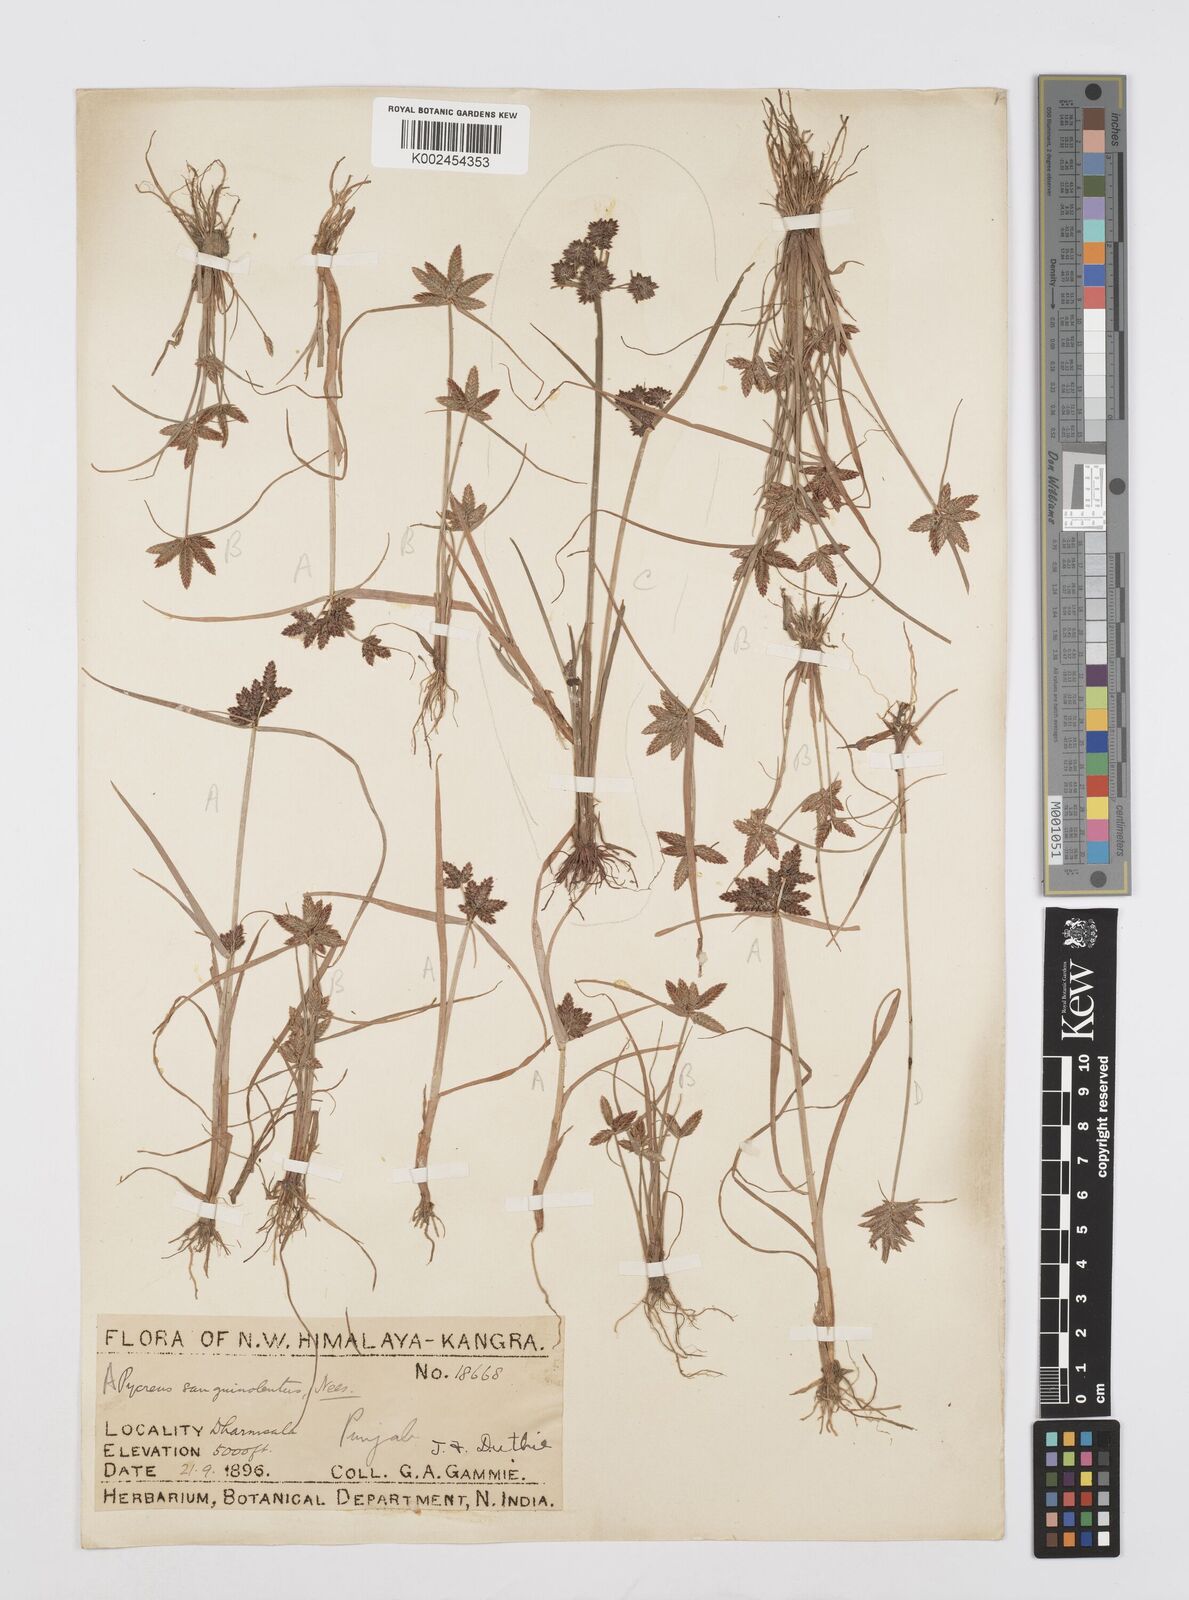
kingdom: Plantae
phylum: Tracheophyta
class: Liliopsida
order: Poales
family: Cyperaceae
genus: Cyperus
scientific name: Cyperus sanguinolentus
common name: Purpleglume flatsedge
